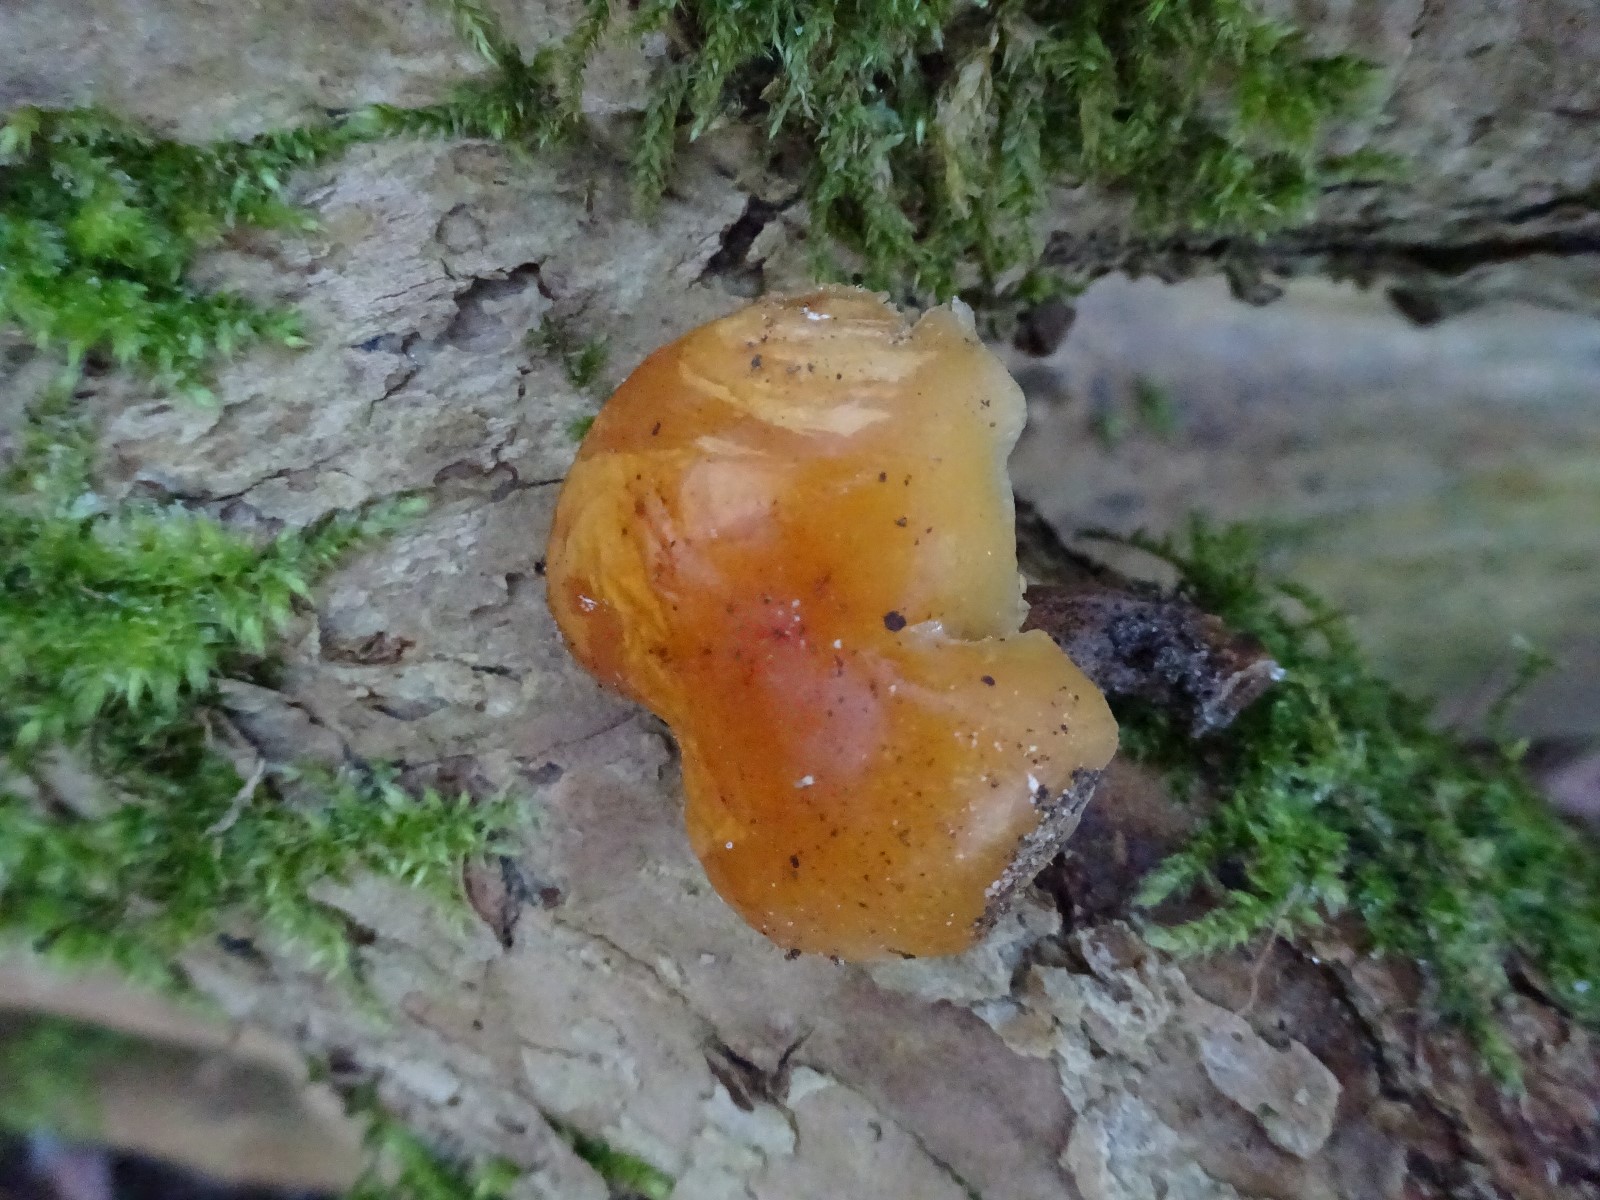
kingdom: Fungi
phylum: Basidiomycota
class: Agaricomycetes
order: Agaricales
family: Physalacriaceae
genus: Flammulina
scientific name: Flammulina velutipes
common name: gul fløjlsfod
